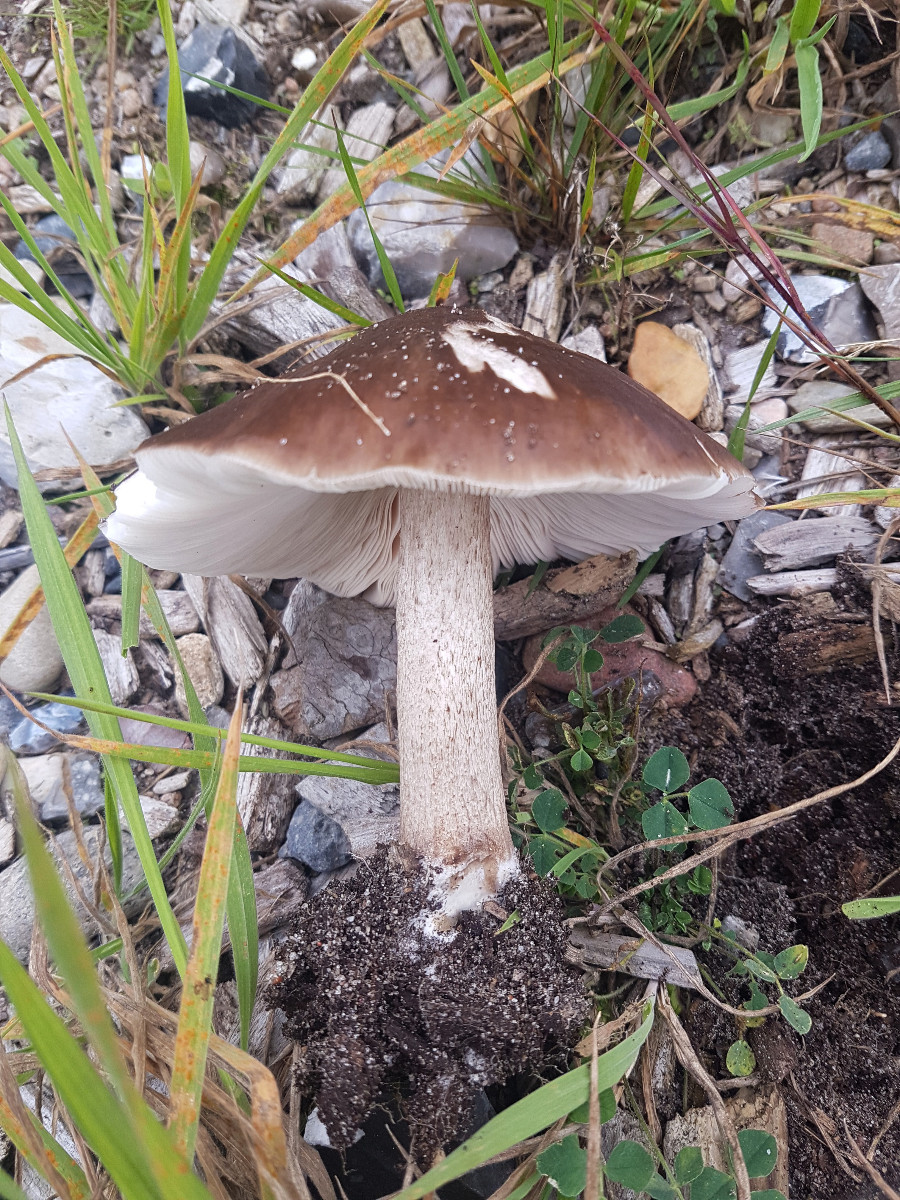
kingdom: Fungi
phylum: Basidiomycota
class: Agaricomycetes
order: Agaricales
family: Pluteaceae
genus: Pluteus
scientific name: Pluteus cervinus
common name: sodfarvet skærmhat
